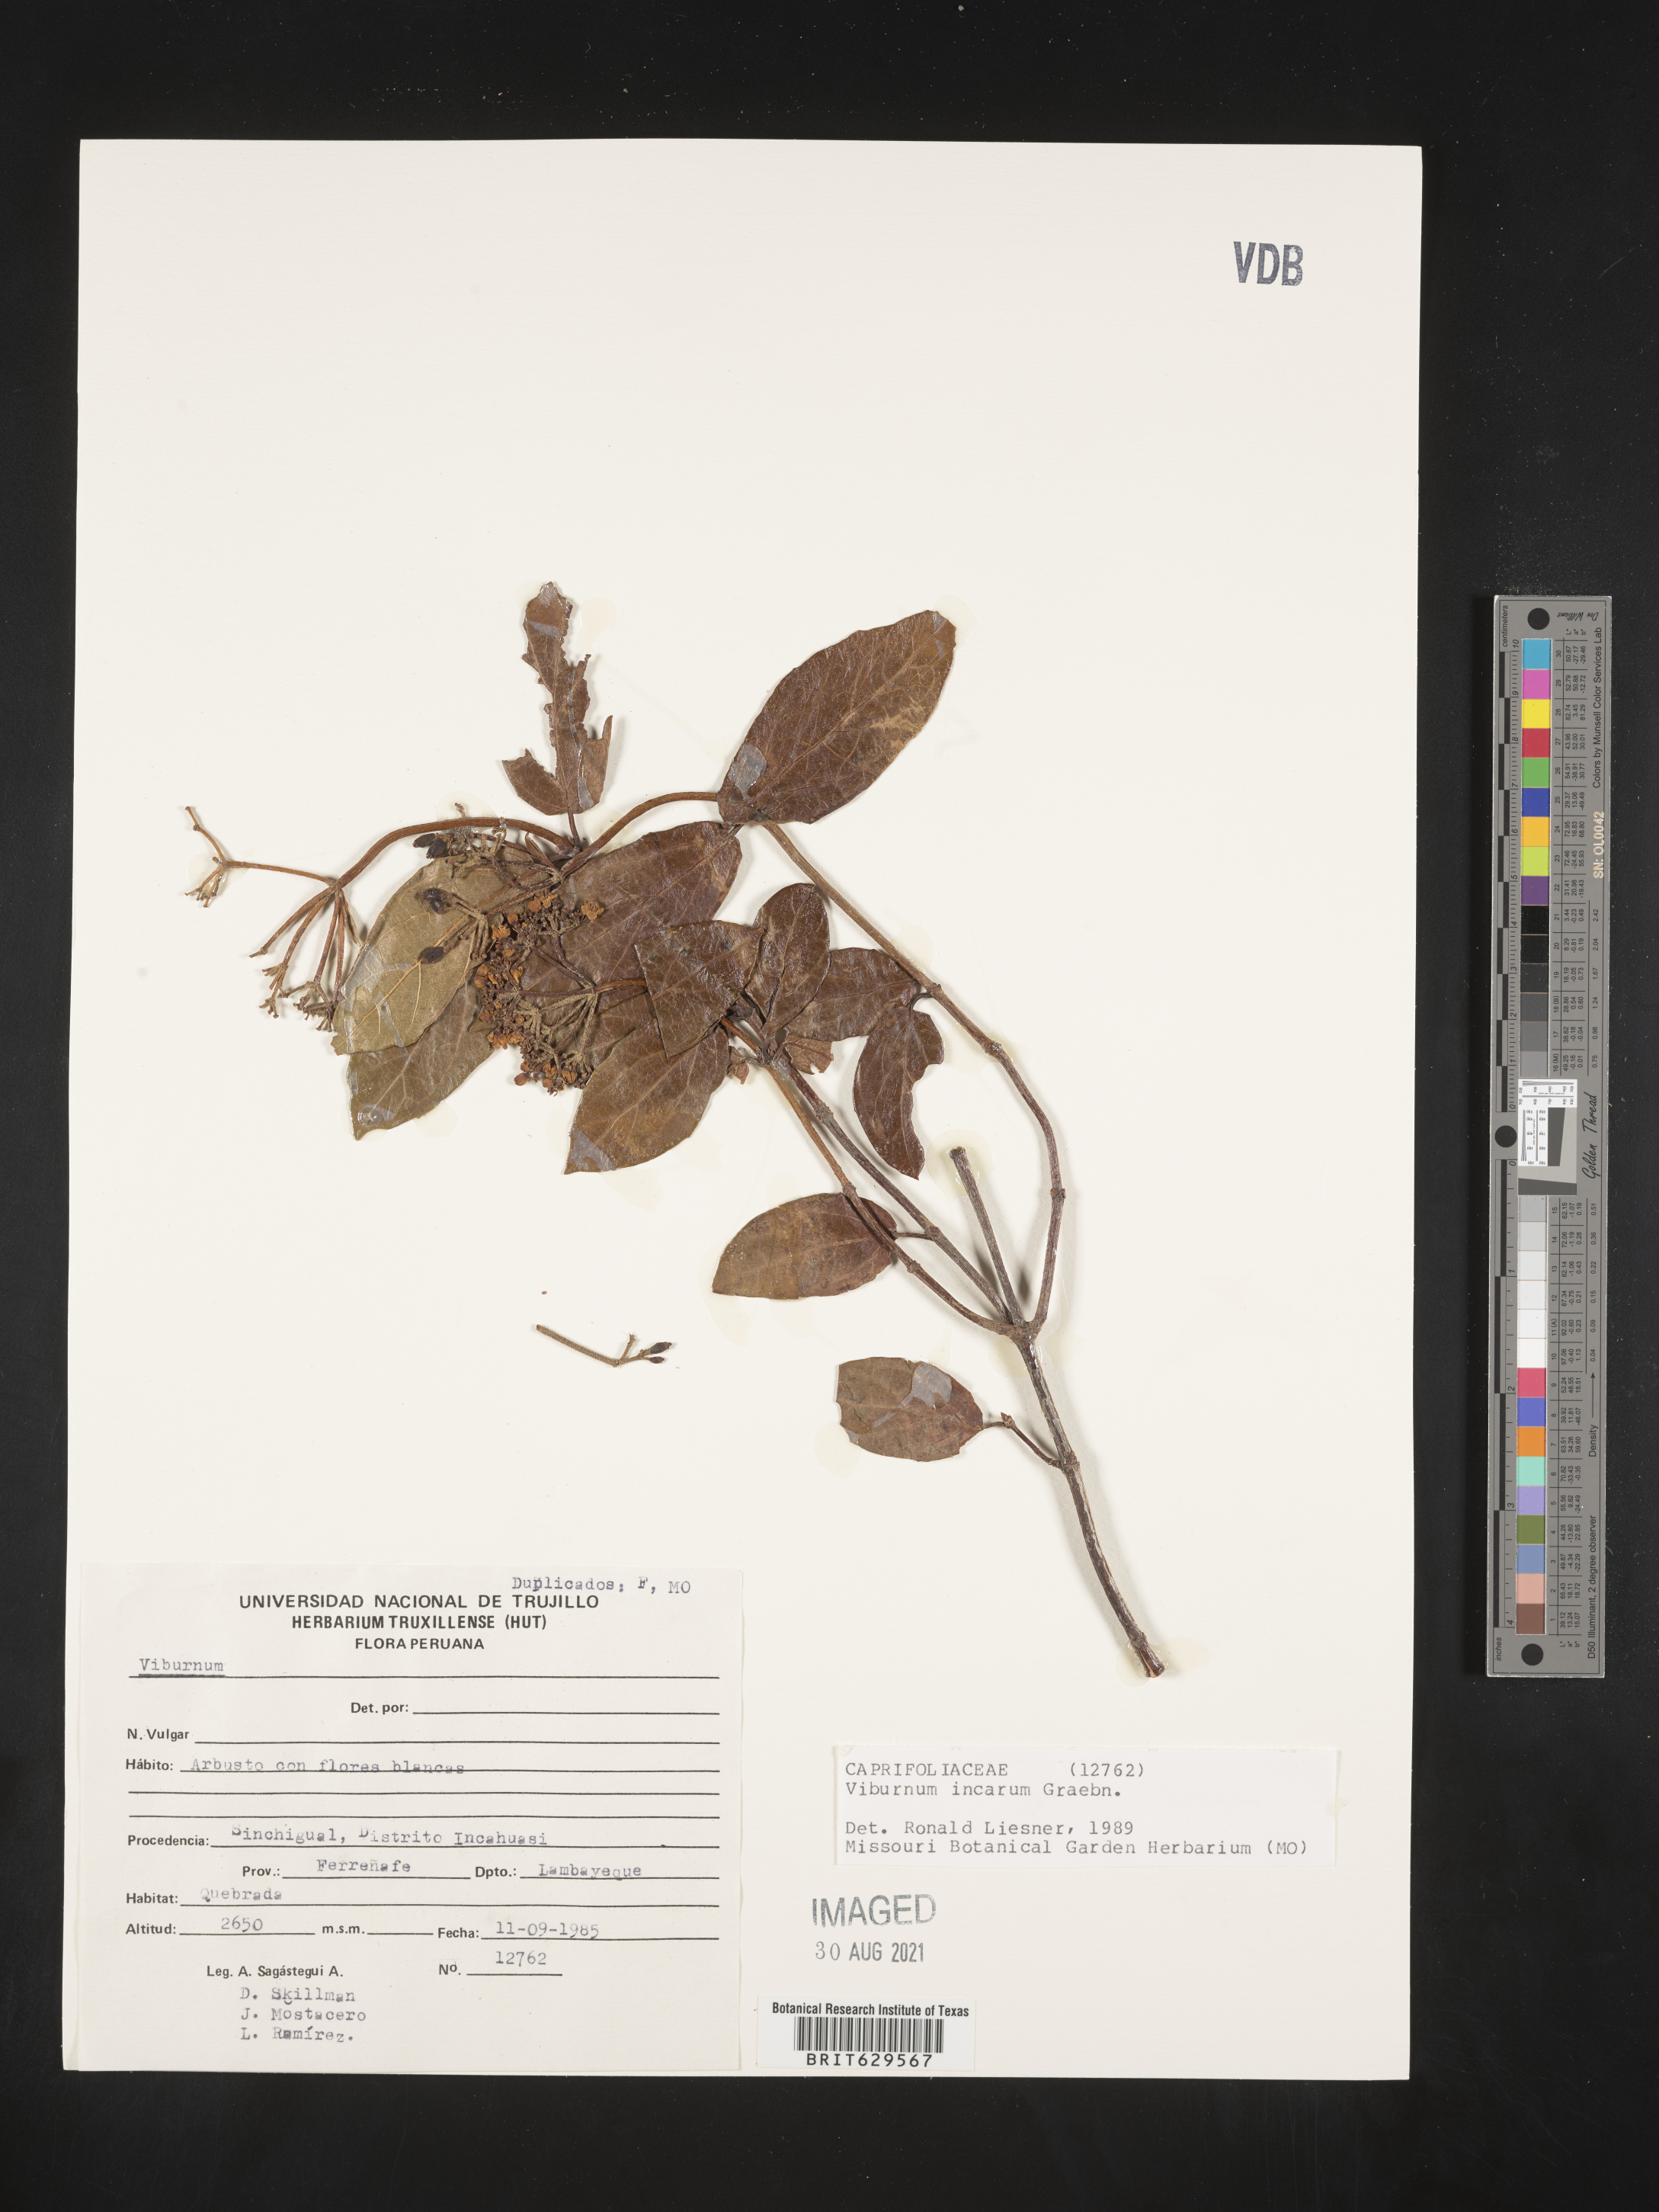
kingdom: Plantae
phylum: Tracheophyta
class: Magnoliopsida
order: Dipsacales
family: Viburnaceae
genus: Viburnum
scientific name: Viburnum hallii
